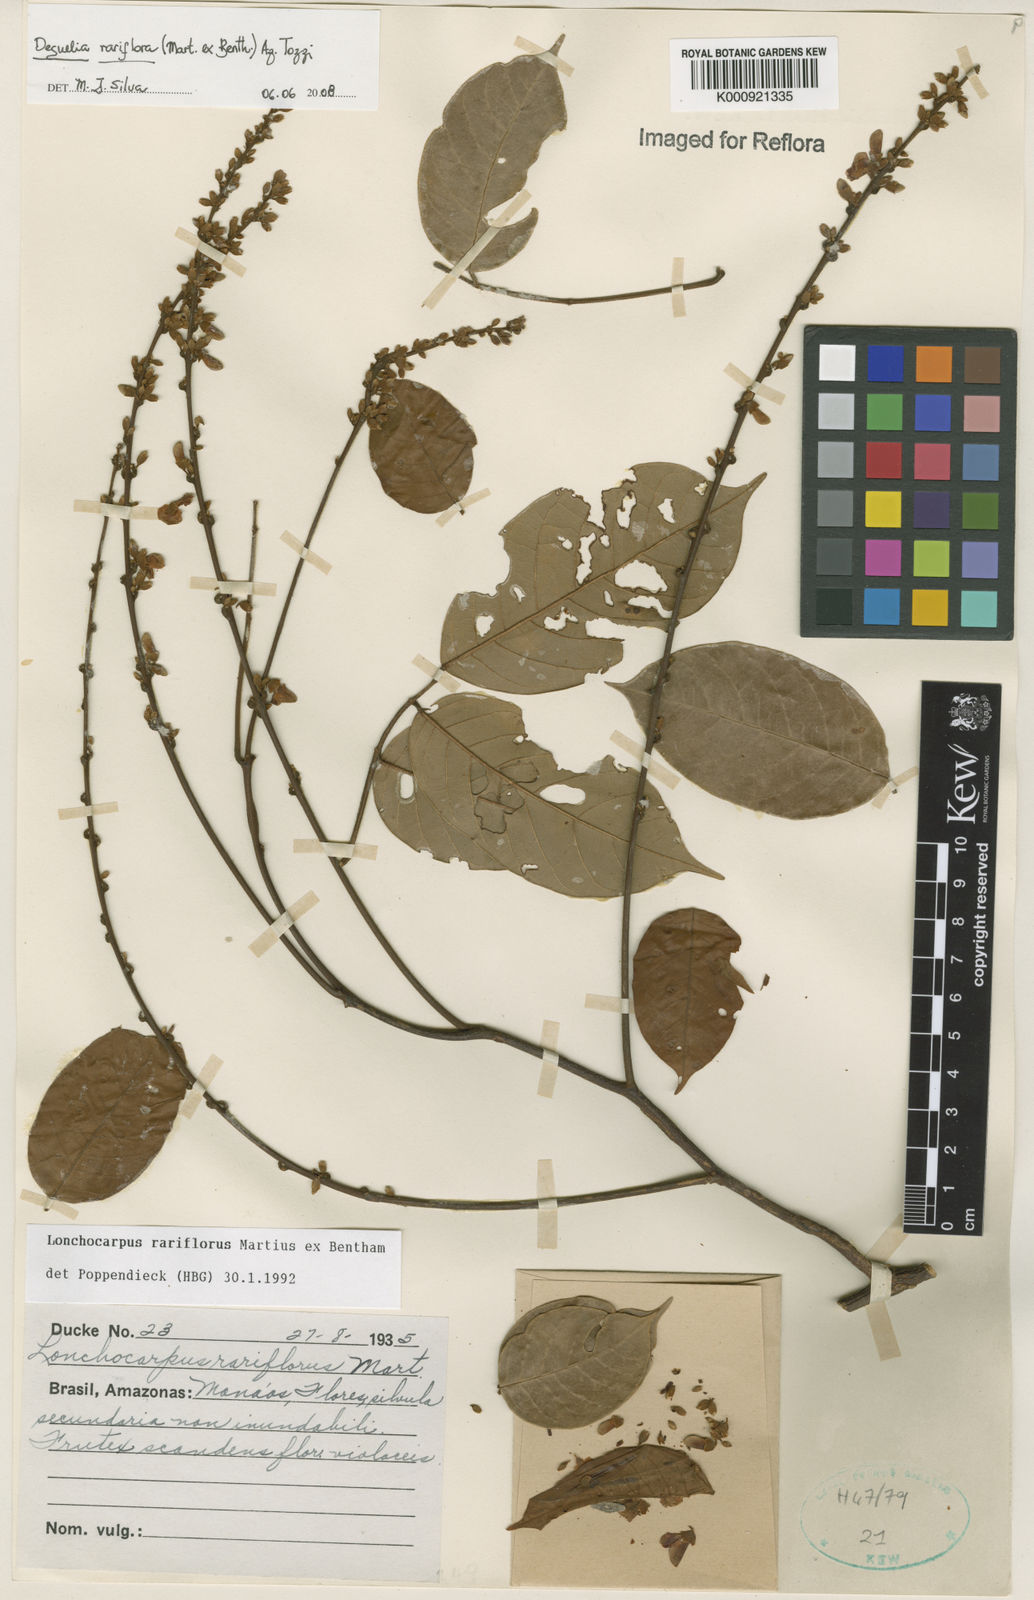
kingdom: Plantae
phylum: Tracheophyta
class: Magnoliopsida
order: Fabales
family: Fabaceae
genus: Deguelia
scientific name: Deguelia
